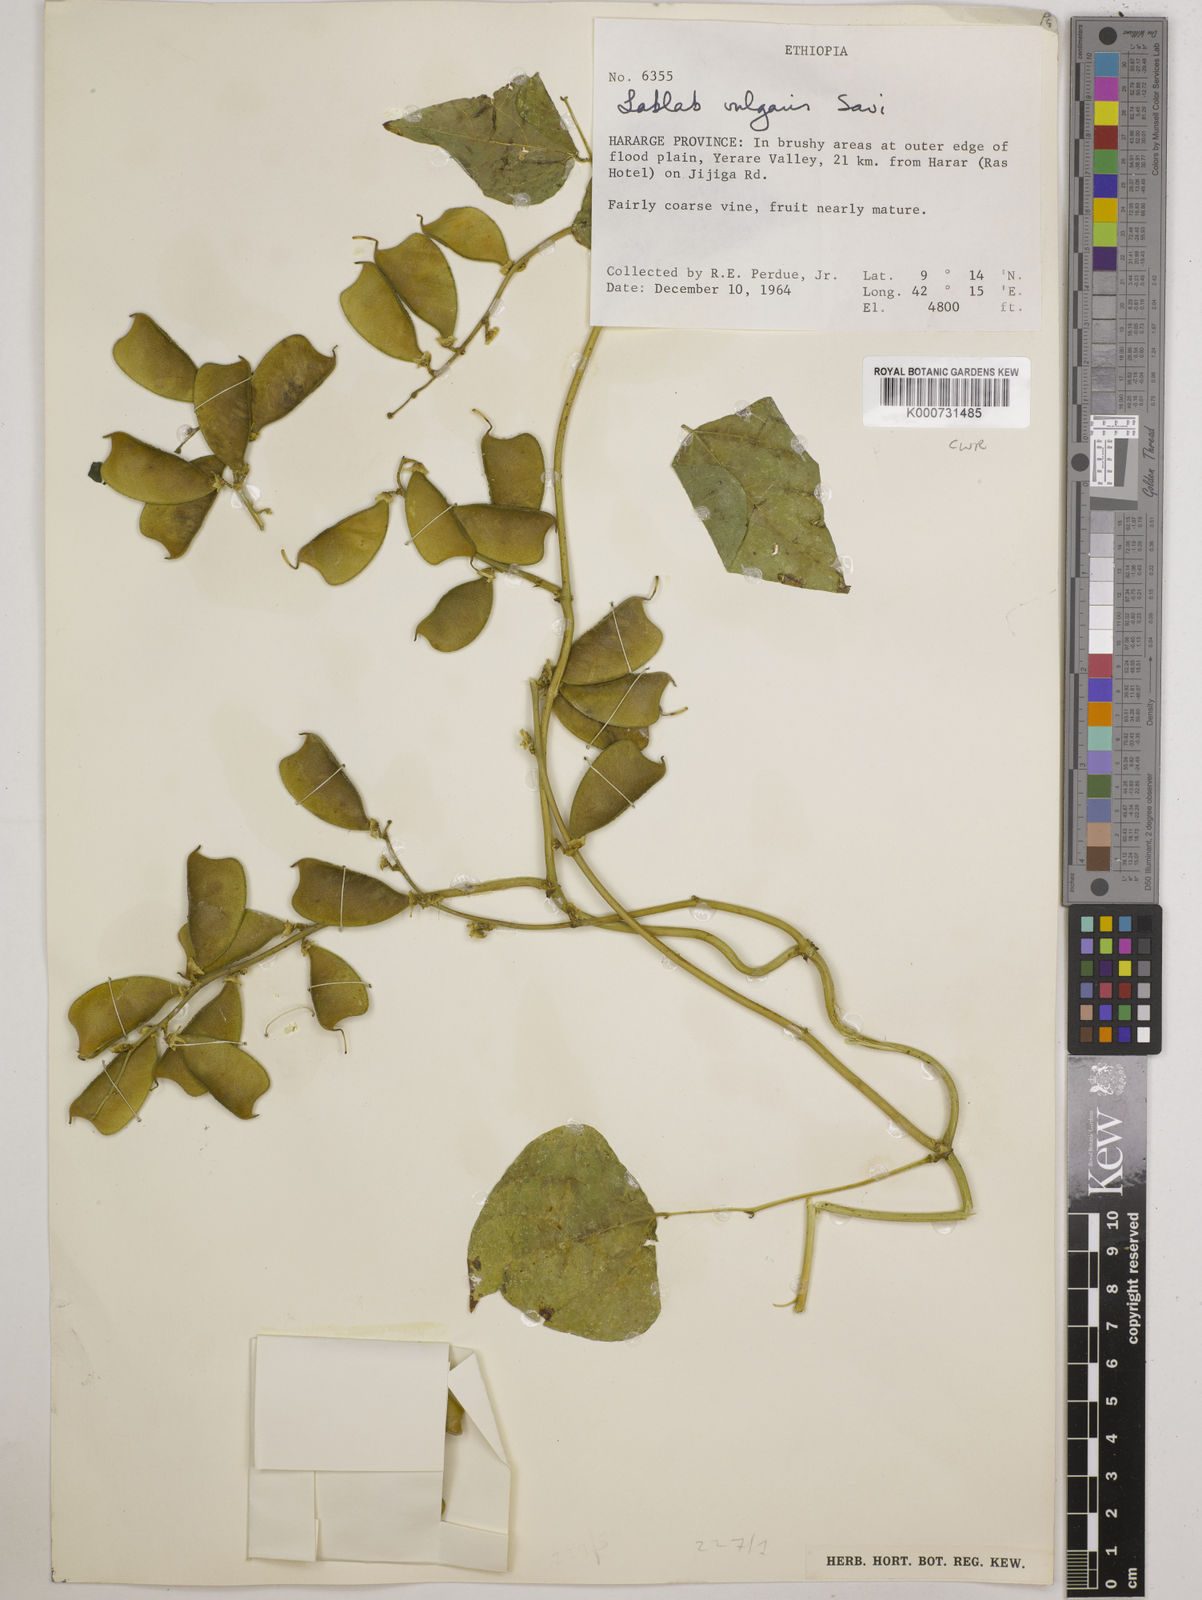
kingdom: Plantae
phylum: Tracheophyta
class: Magnoliopsida
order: Fabales
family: Fabaceae
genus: Lablab
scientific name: Lablab purpureus
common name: Lablab-bean
